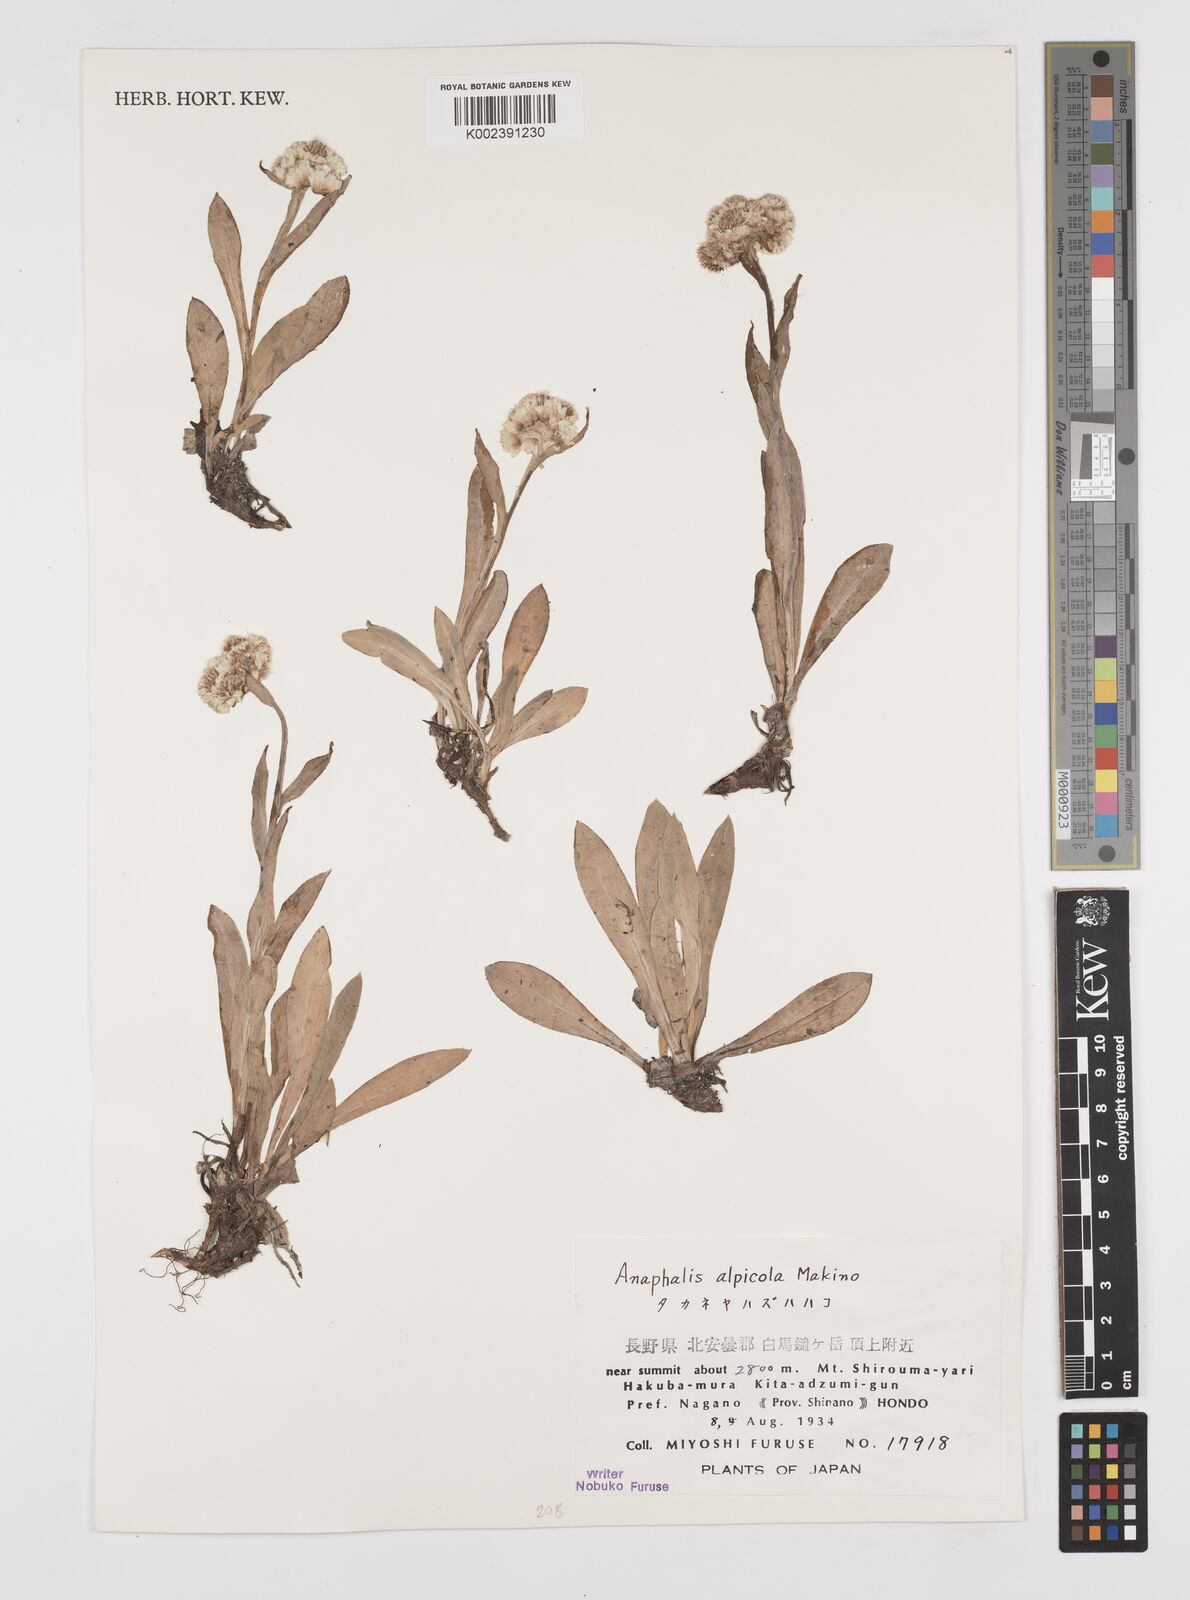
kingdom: Plantae
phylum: Tracheophyta
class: Magnoliopsida
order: Asterales
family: Asteraceae
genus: Anaphalis
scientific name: Anaphalis alpicola
